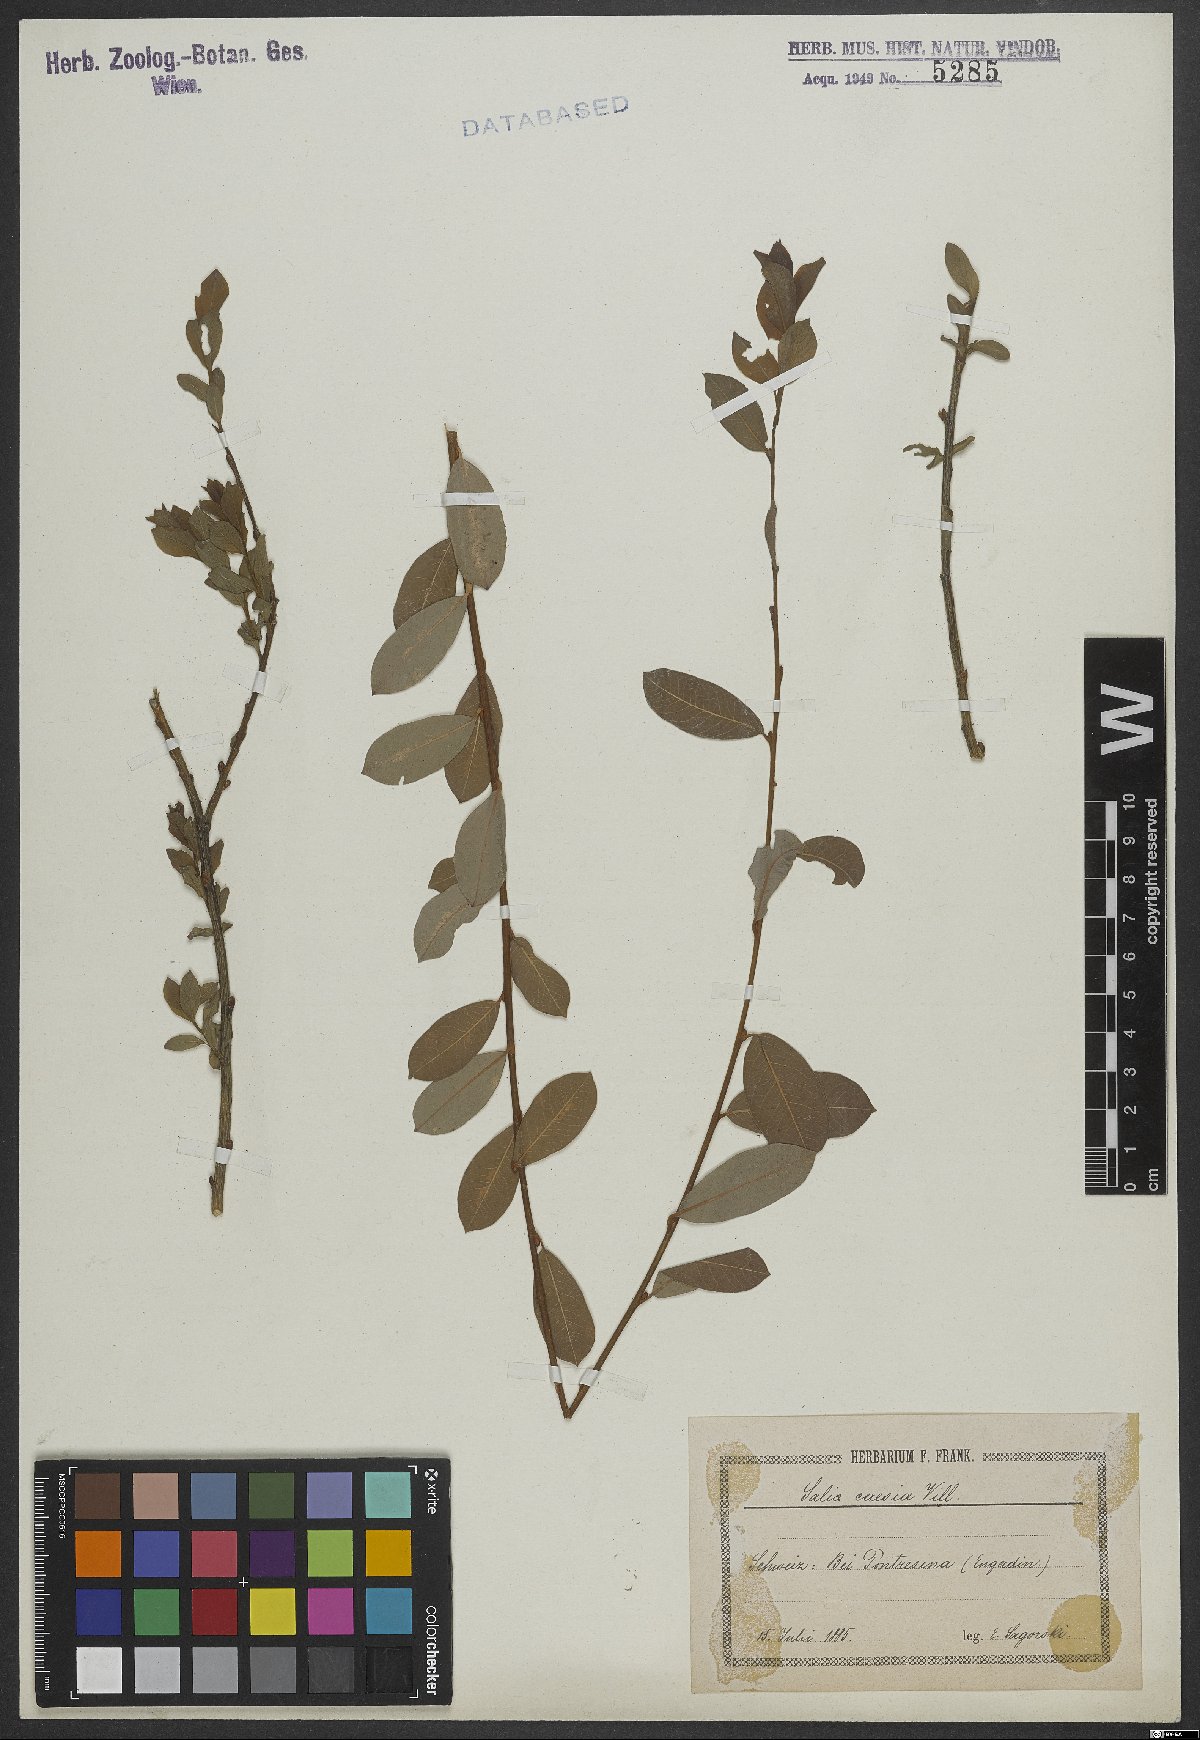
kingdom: Plantae
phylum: Tracheophyta
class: Magnoliopsida
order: Malpighiales
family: Salicaceae
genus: Salix
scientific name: Salix caesia
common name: Blue willow
